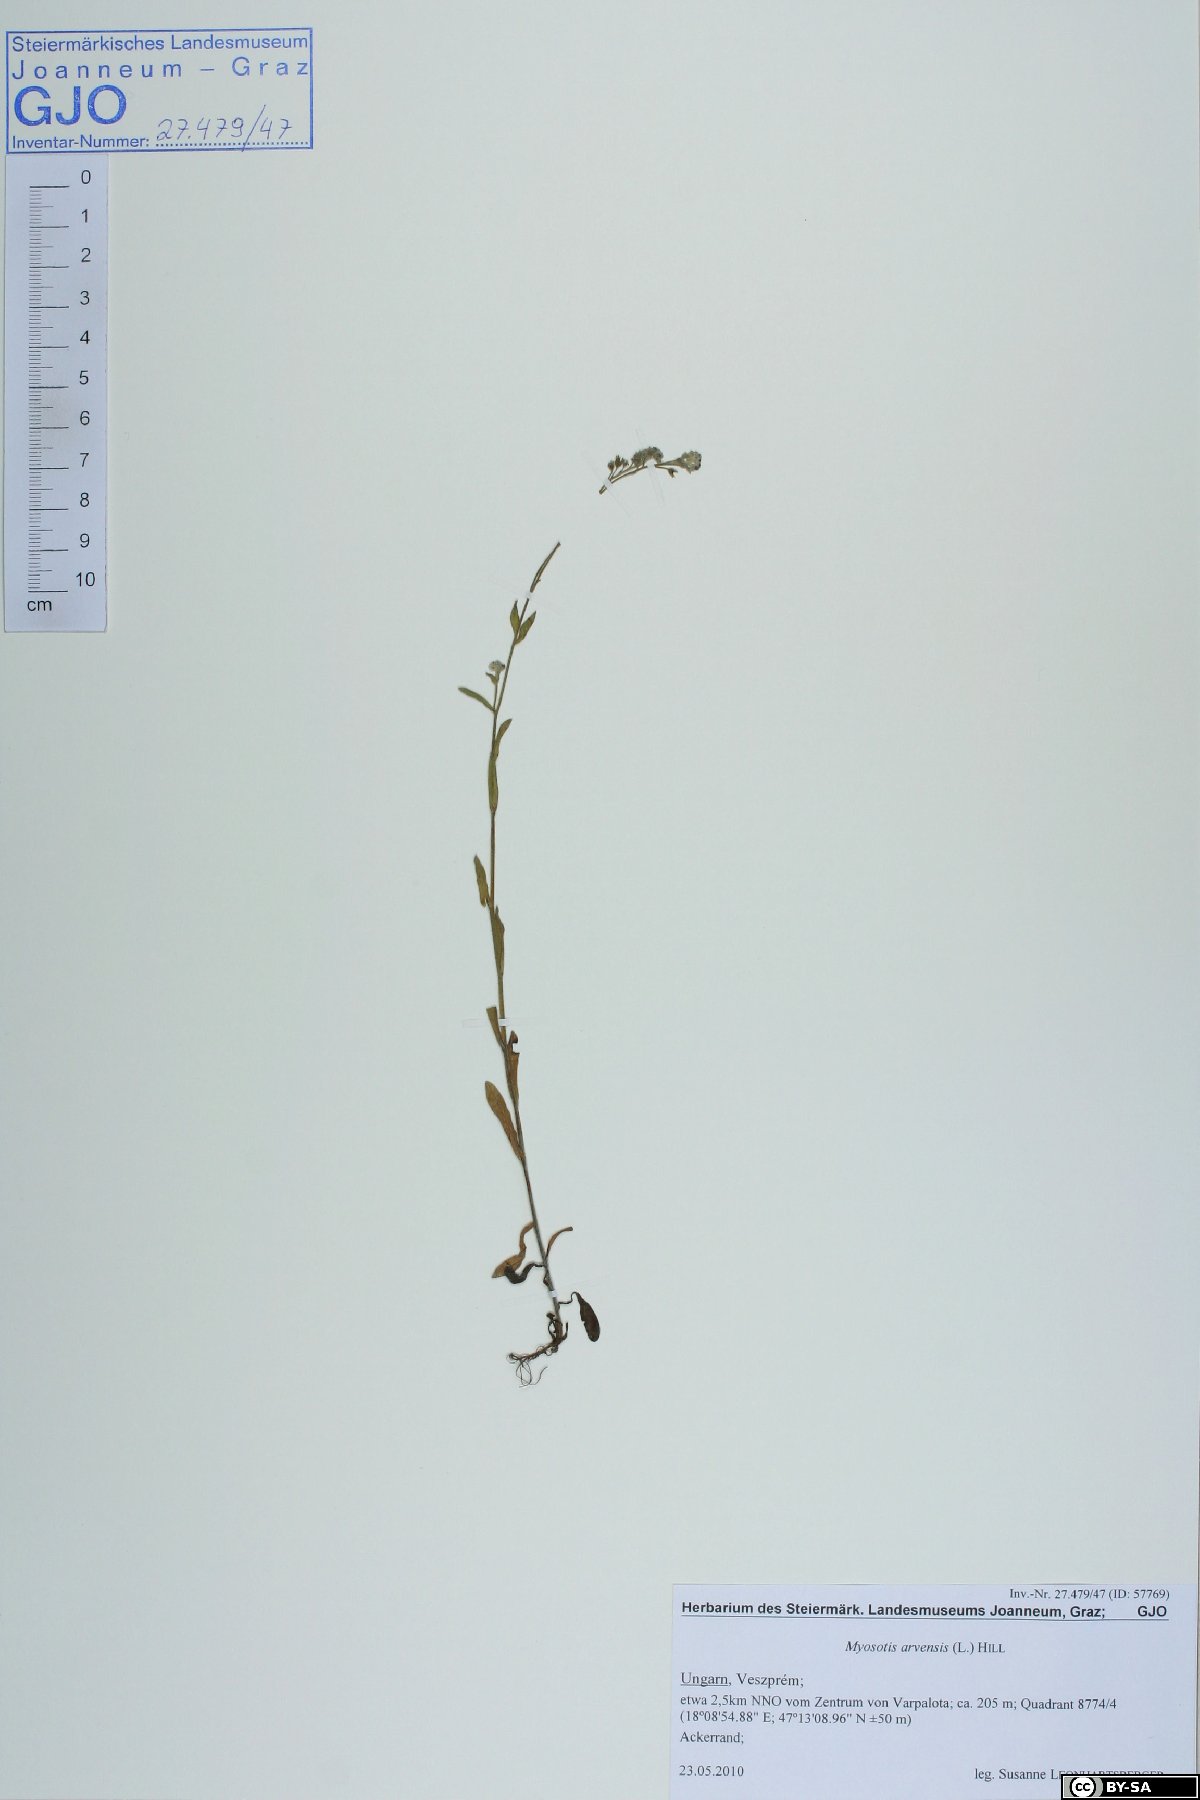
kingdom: Plantae
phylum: Tracheophyta
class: Magnoliopsida
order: Boraginales
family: Boraginaceae
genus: Myosotis
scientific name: Myosotis arvensis
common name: Field forget-me-not
